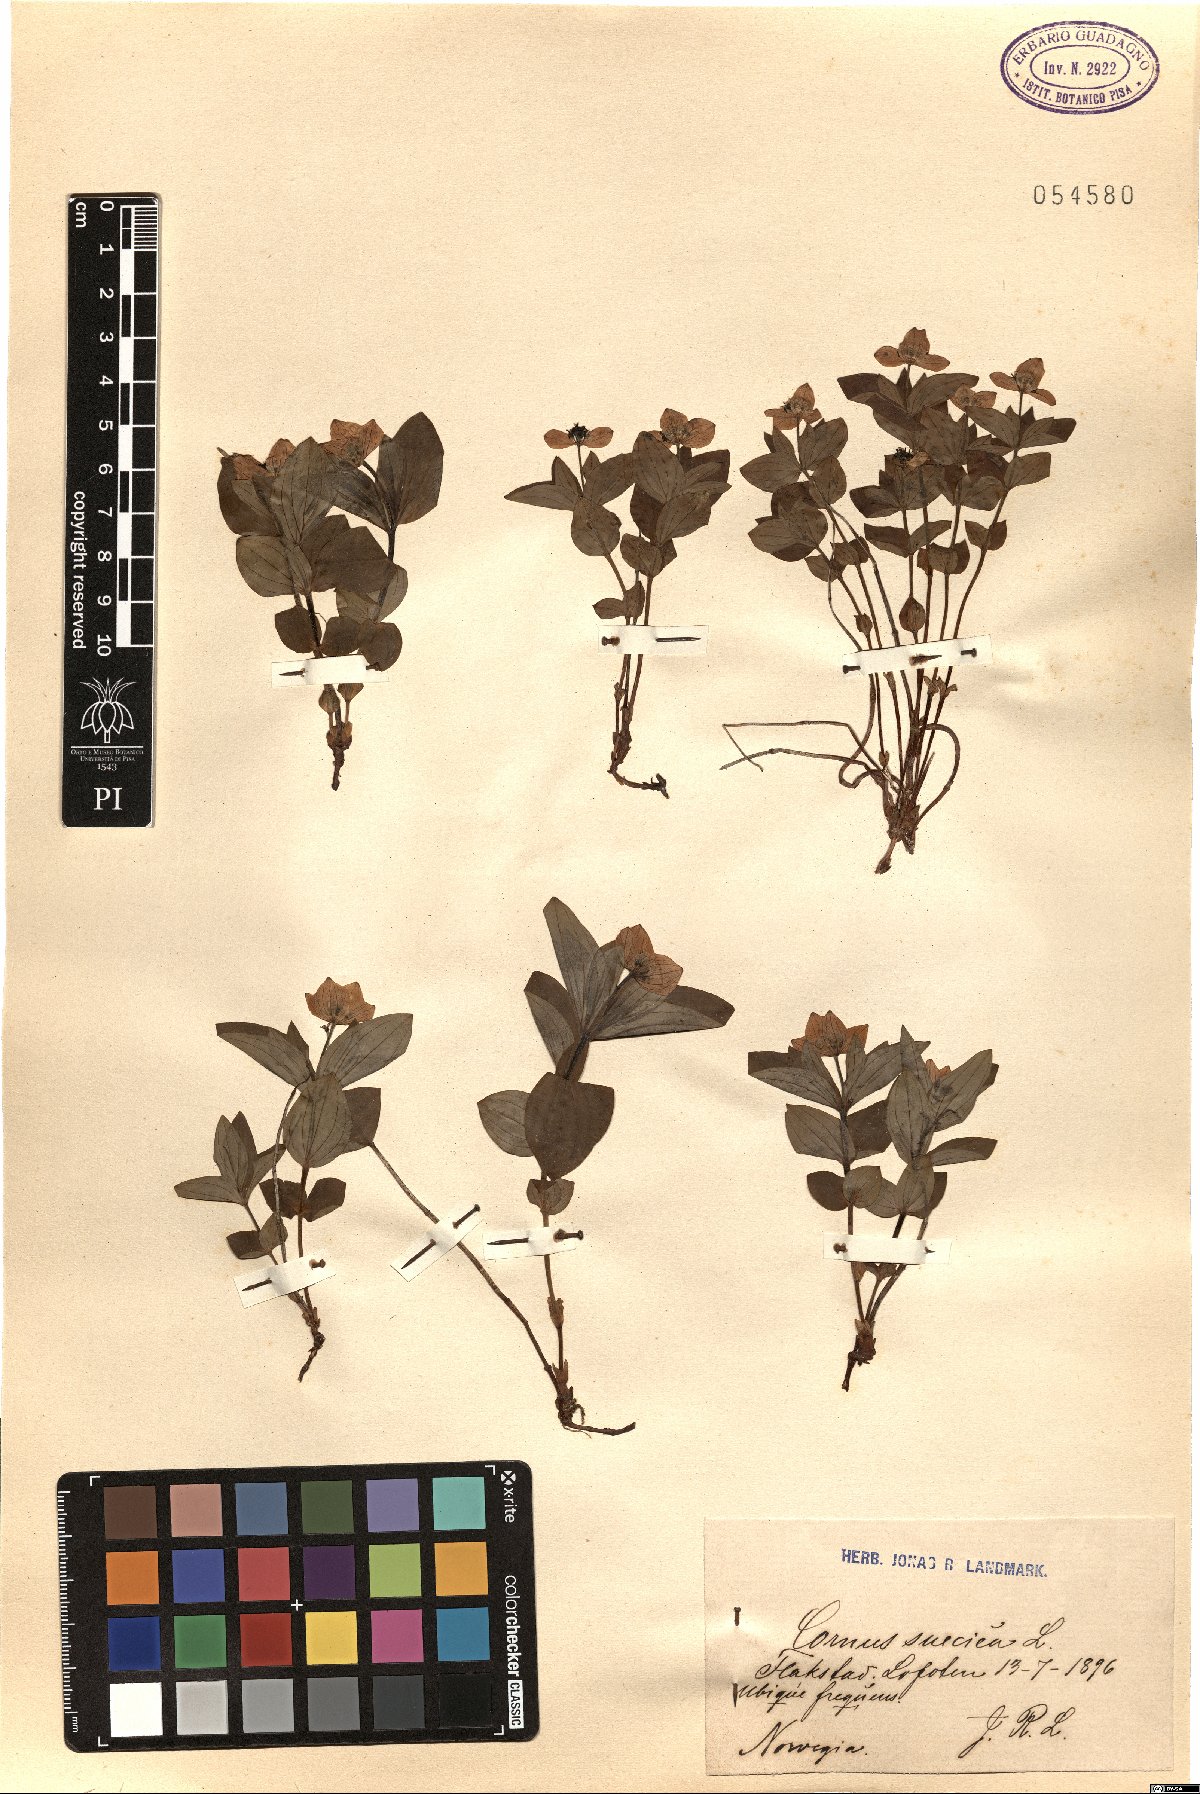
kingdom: Plantae
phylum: Tracheophyta
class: Magnoliopsida
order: Cornales
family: Cornaceae
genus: Cornus
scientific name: Cornus suecica
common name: Dwarf cornel
